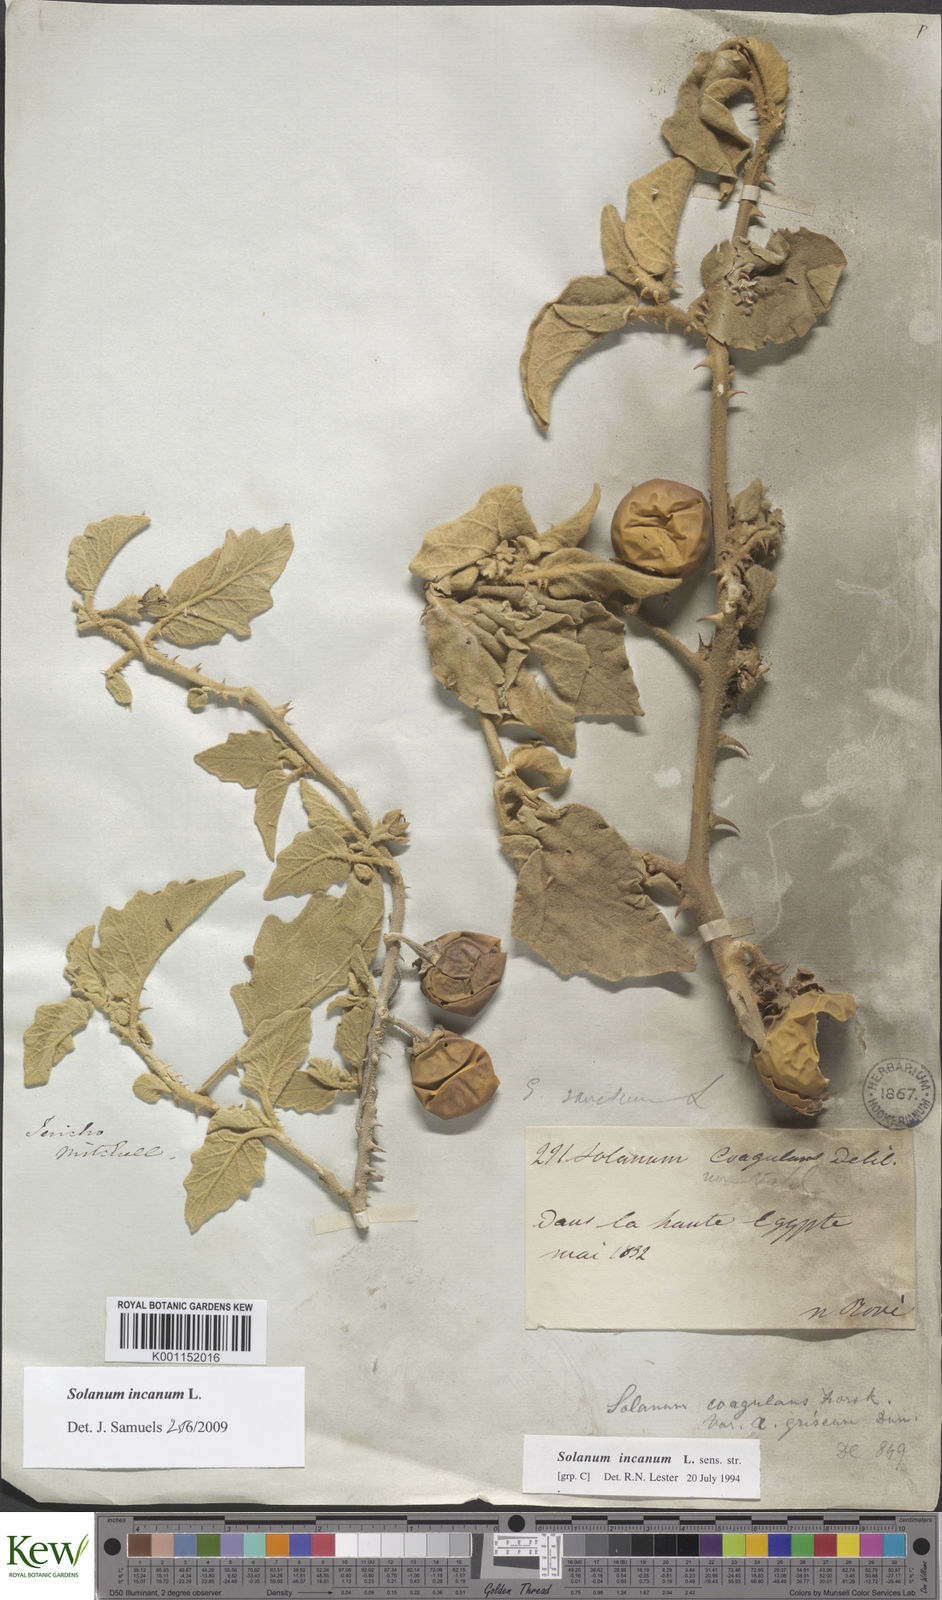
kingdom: Plantae
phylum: Tracheophyta
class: Magnoliopsida
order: Solanales
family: Solanaceae
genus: Solanum
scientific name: Solanum incanum
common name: Bitter apple
